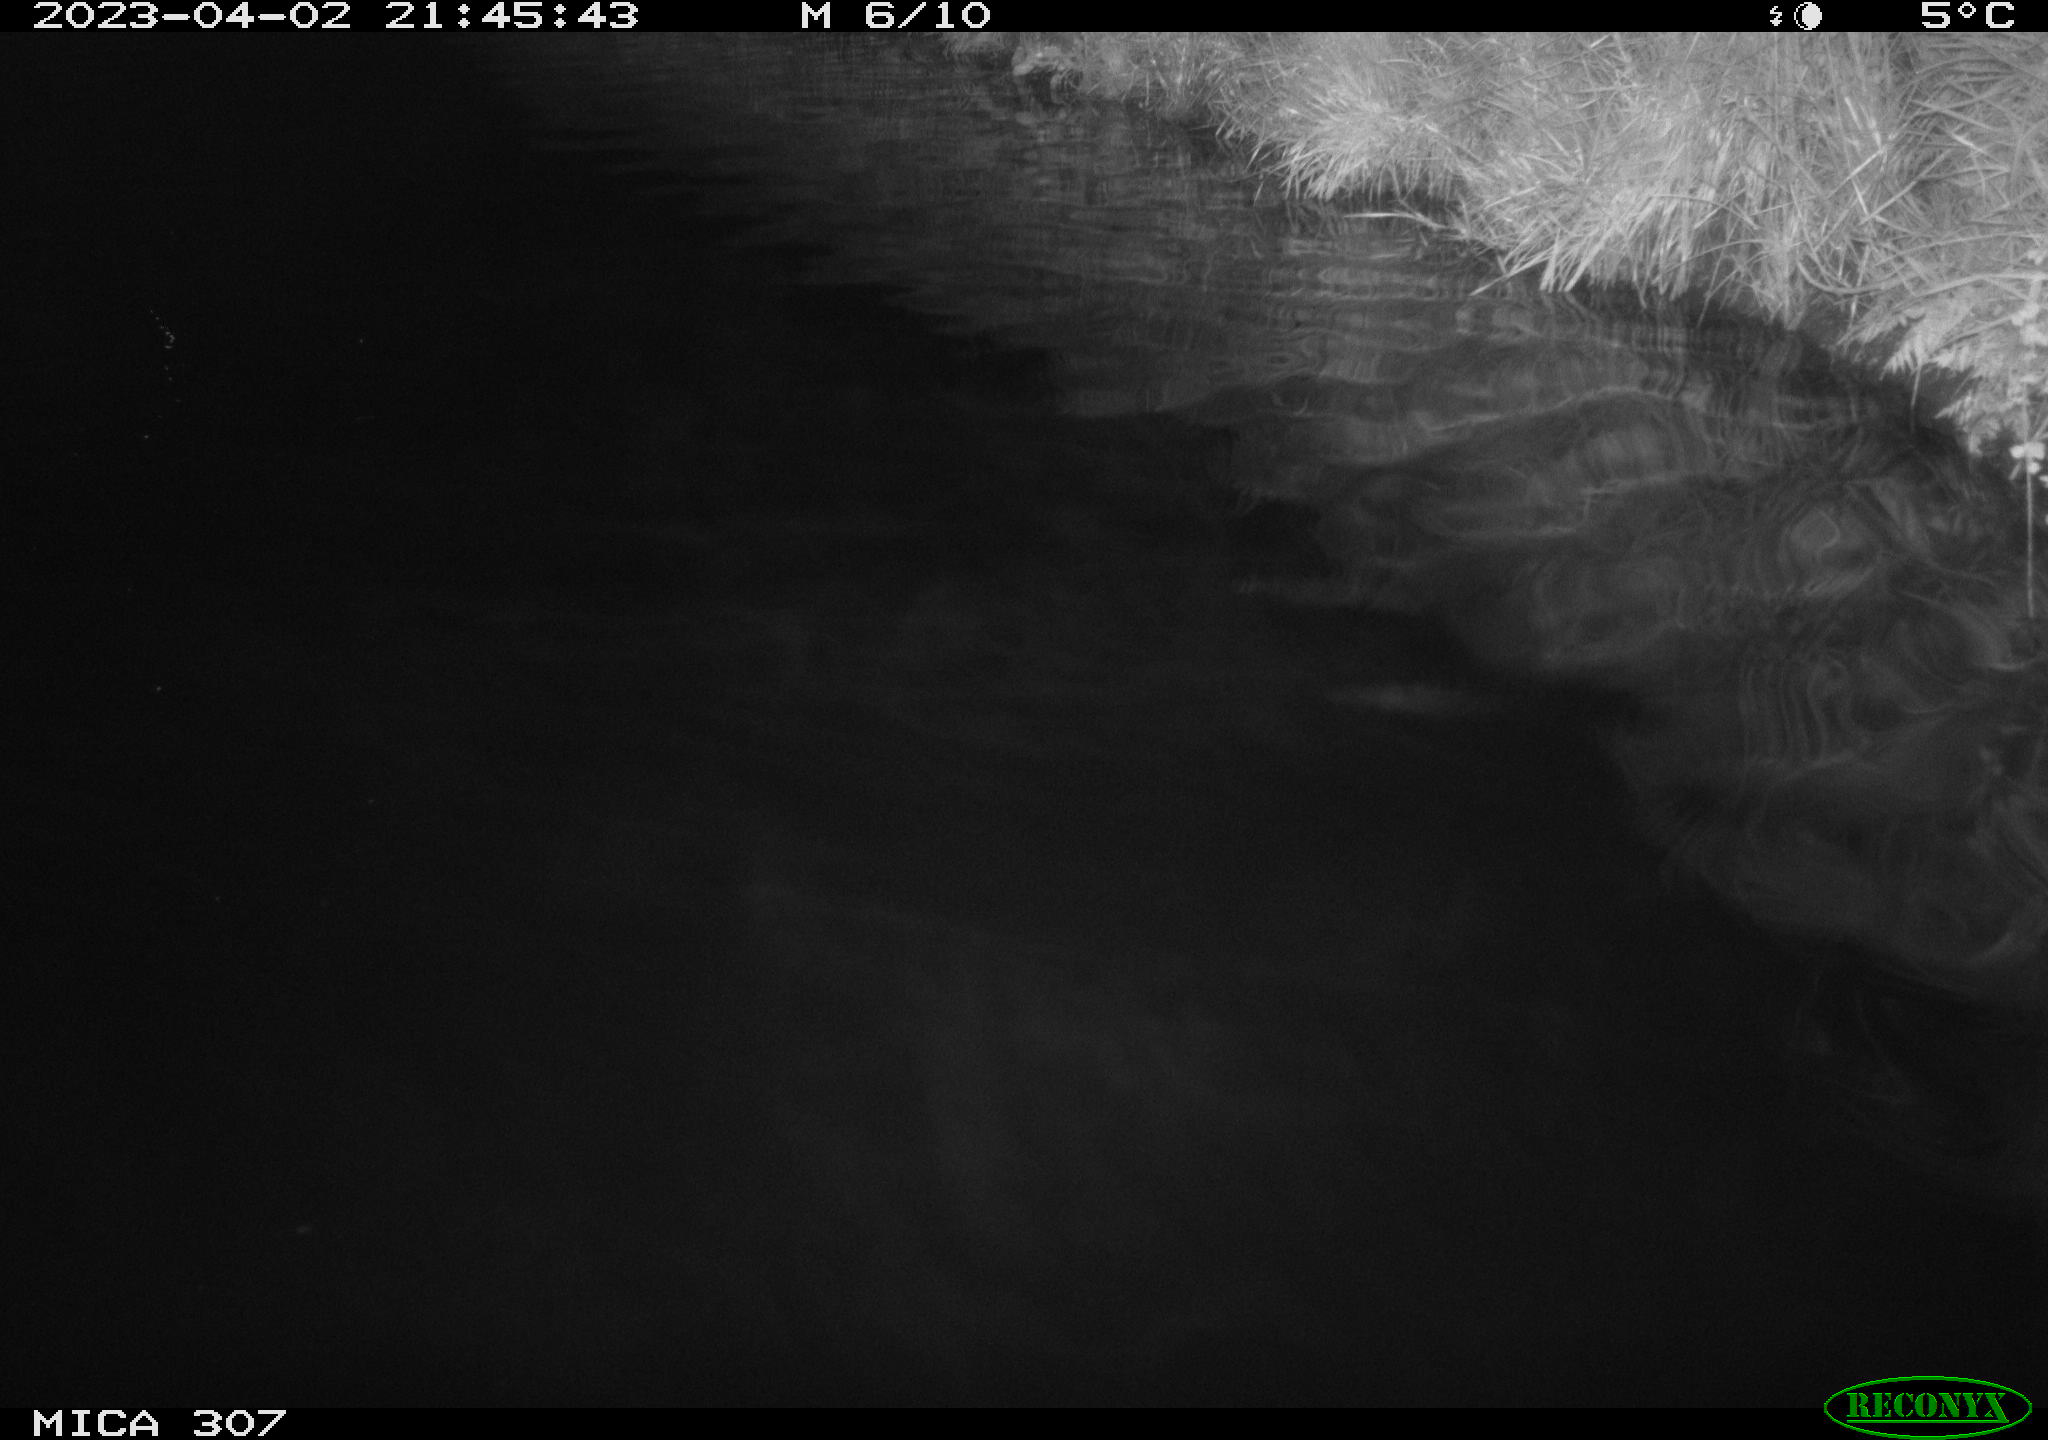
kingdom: Animalia
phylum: Chordata
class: Aves
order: Anseriformes
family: Anatidae
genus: Anas
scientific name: Anas
